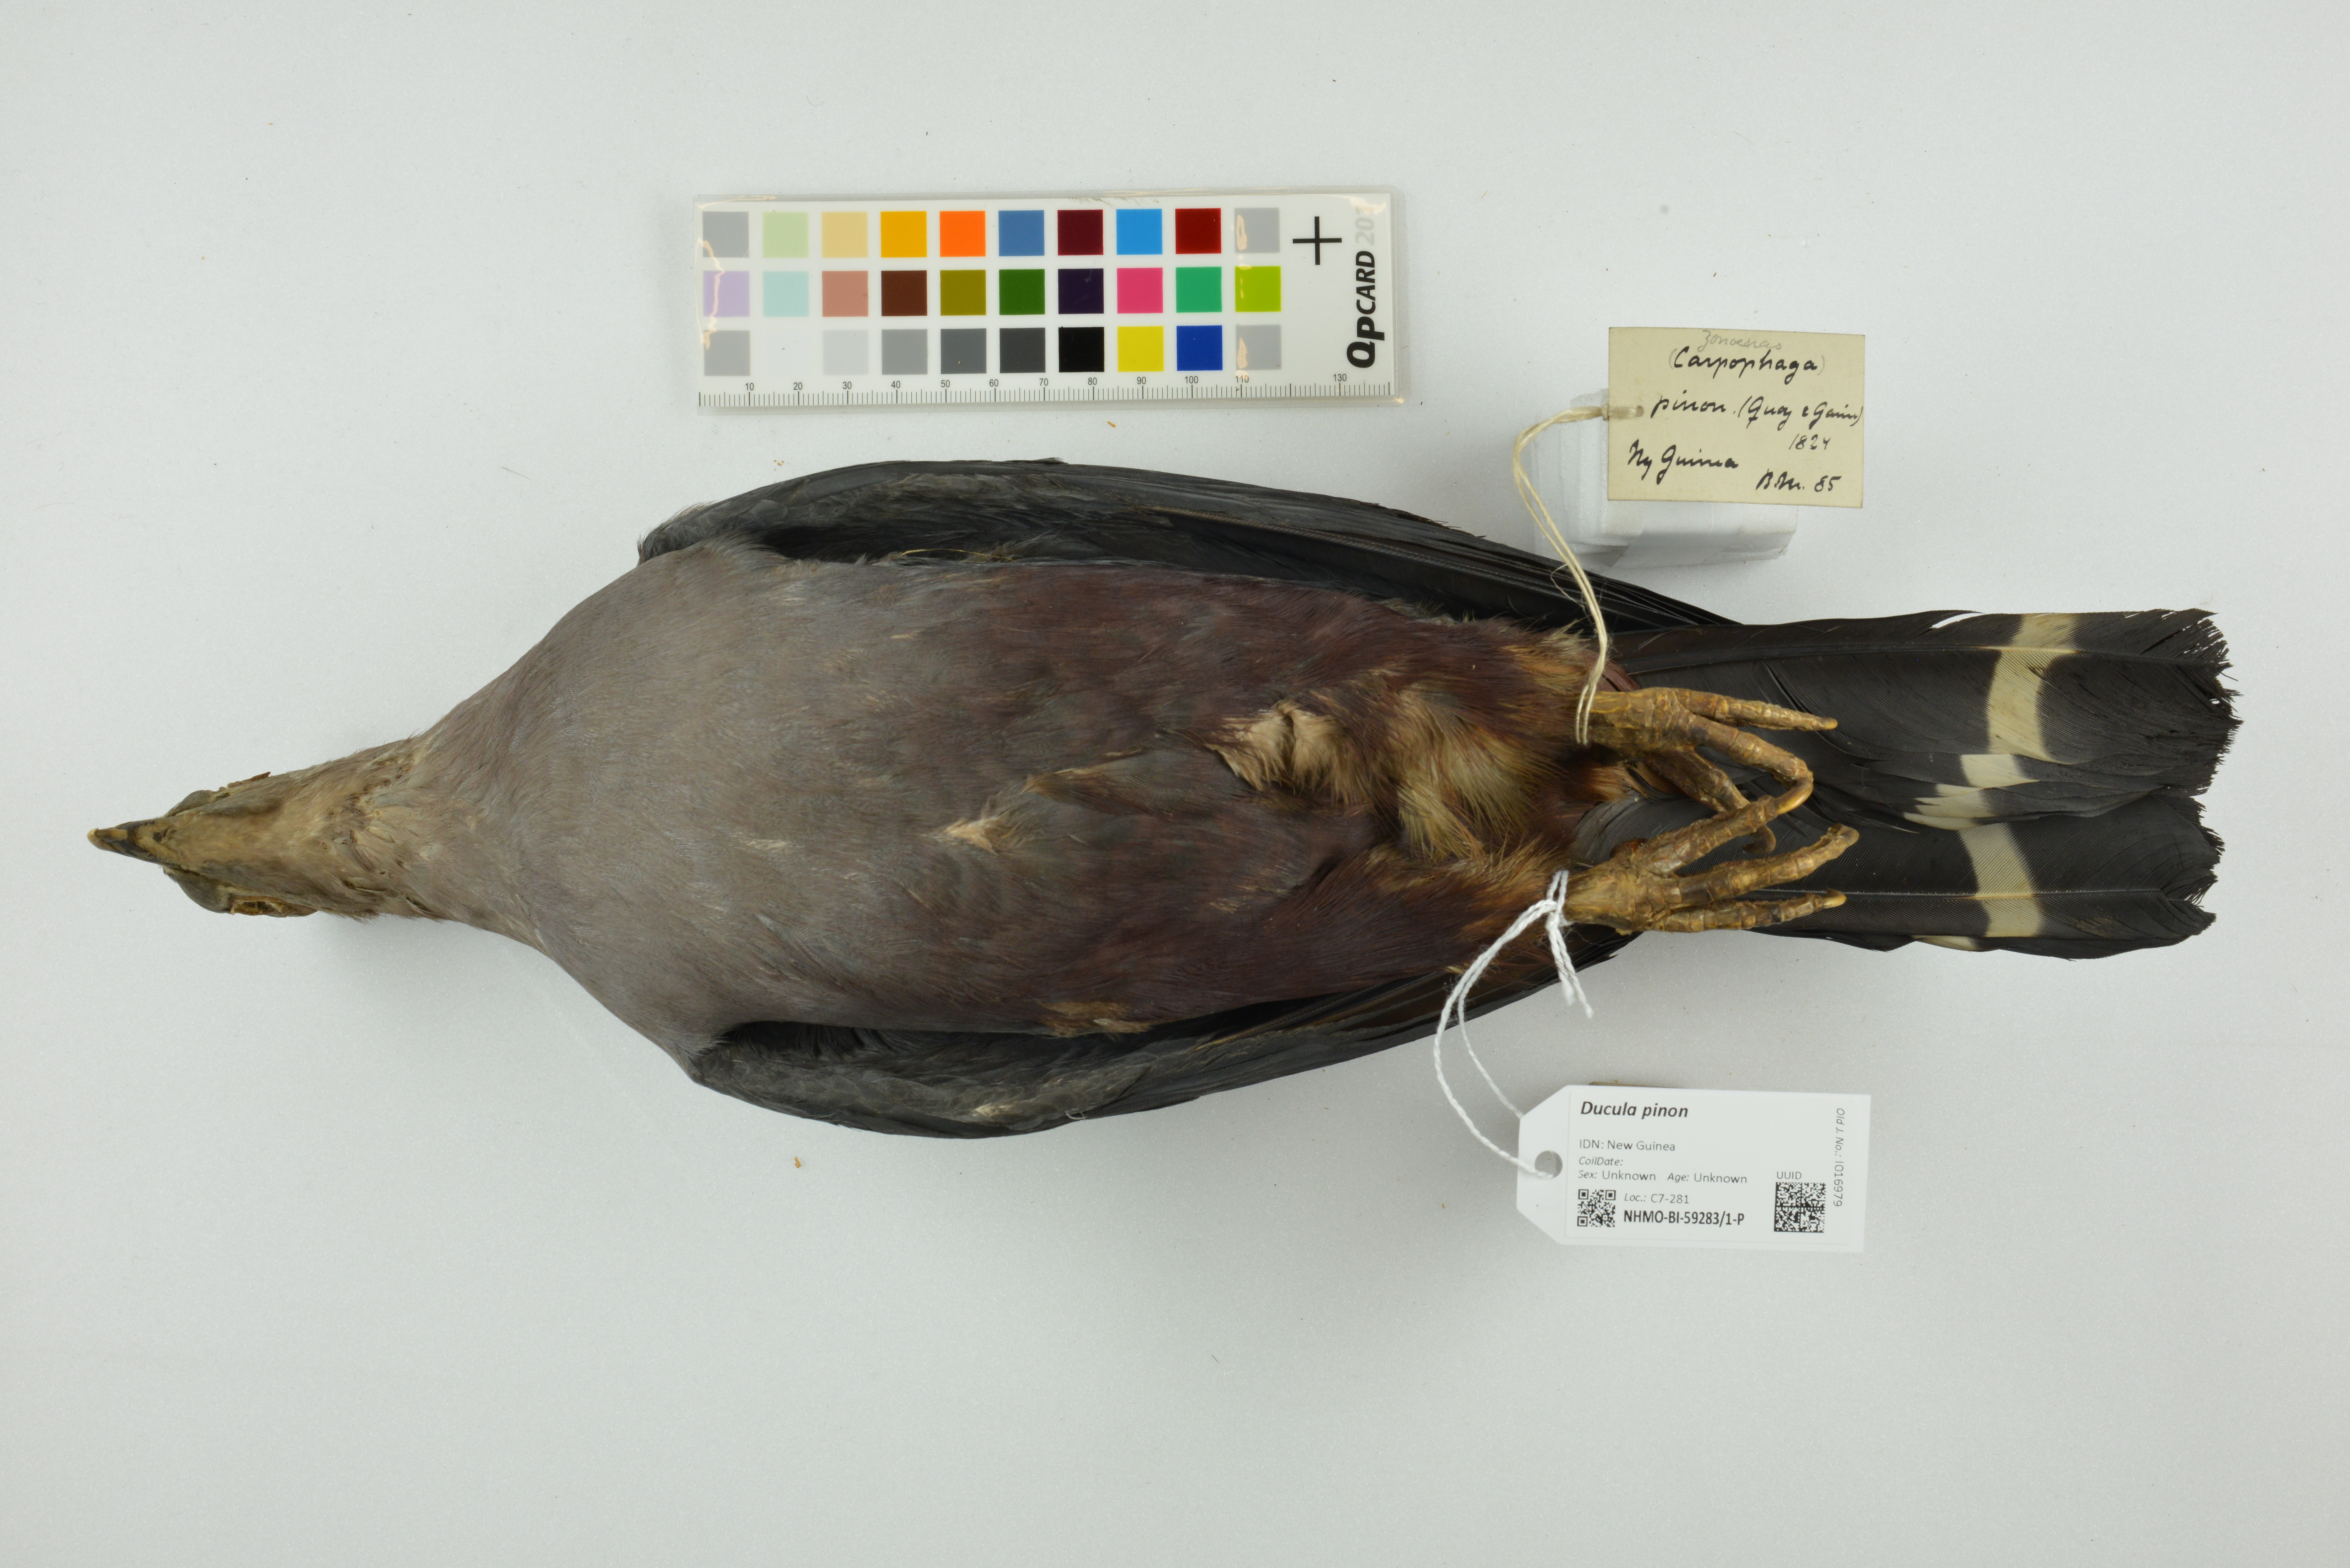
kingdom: Animalia
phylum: Chordata
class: Aves
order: Columbiformes
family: Columbidae
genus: Ducula
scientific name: Ducula pinon
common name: Pinon's imperial pigeon
